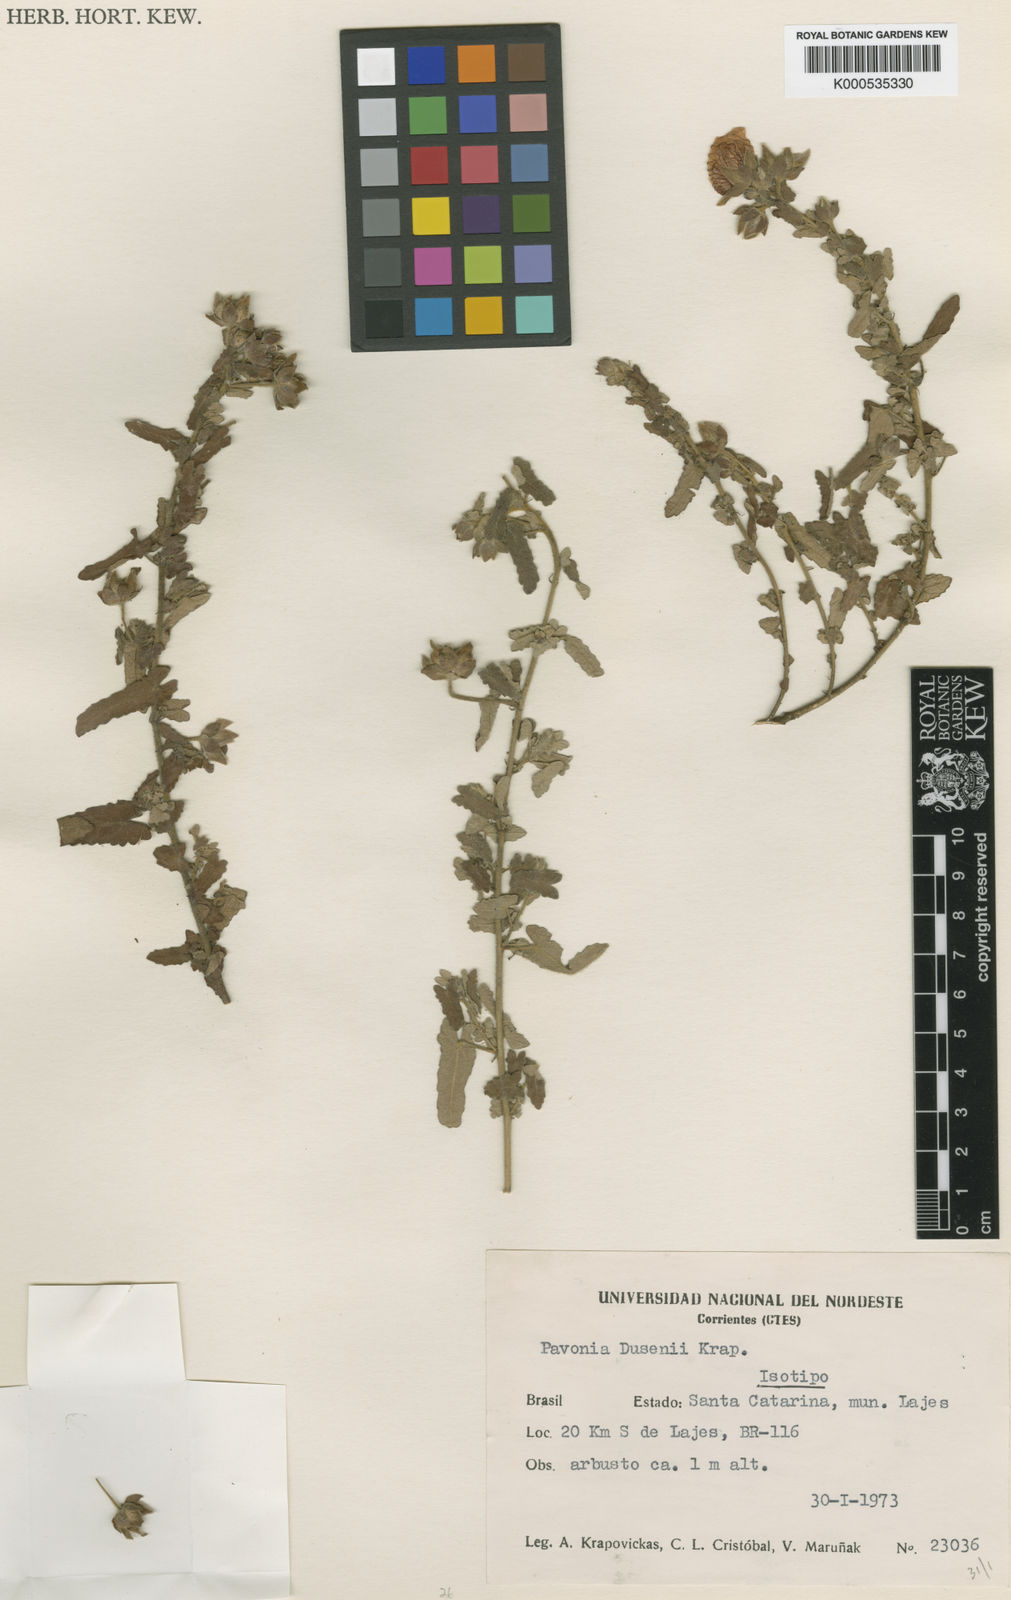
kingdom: Plantae
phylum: Tracheophyta
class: Magnoliopsida
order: Malvales
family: Malvaceae
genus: Pavonia
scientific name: Pavonia dusenii
